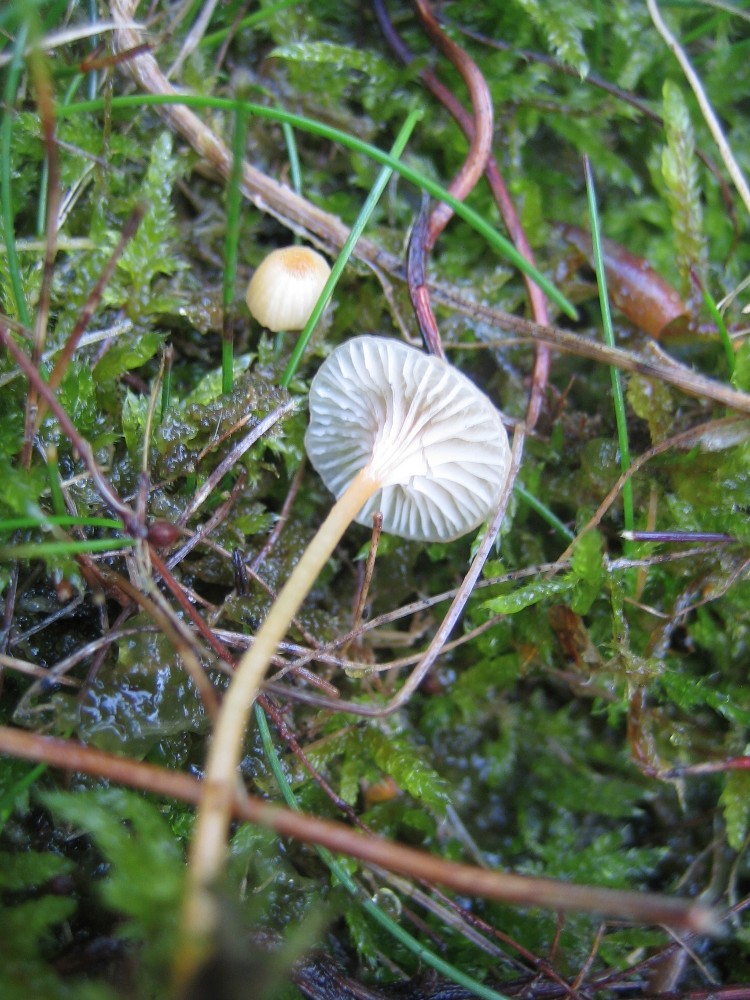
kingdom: Fungi
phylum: Basidiomycota
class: Agaricomycetes
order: Hymenochaetales
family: Rickenellaceae
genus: Rickenella
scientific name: Rickenella fibula
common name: orange mosnavlehat
